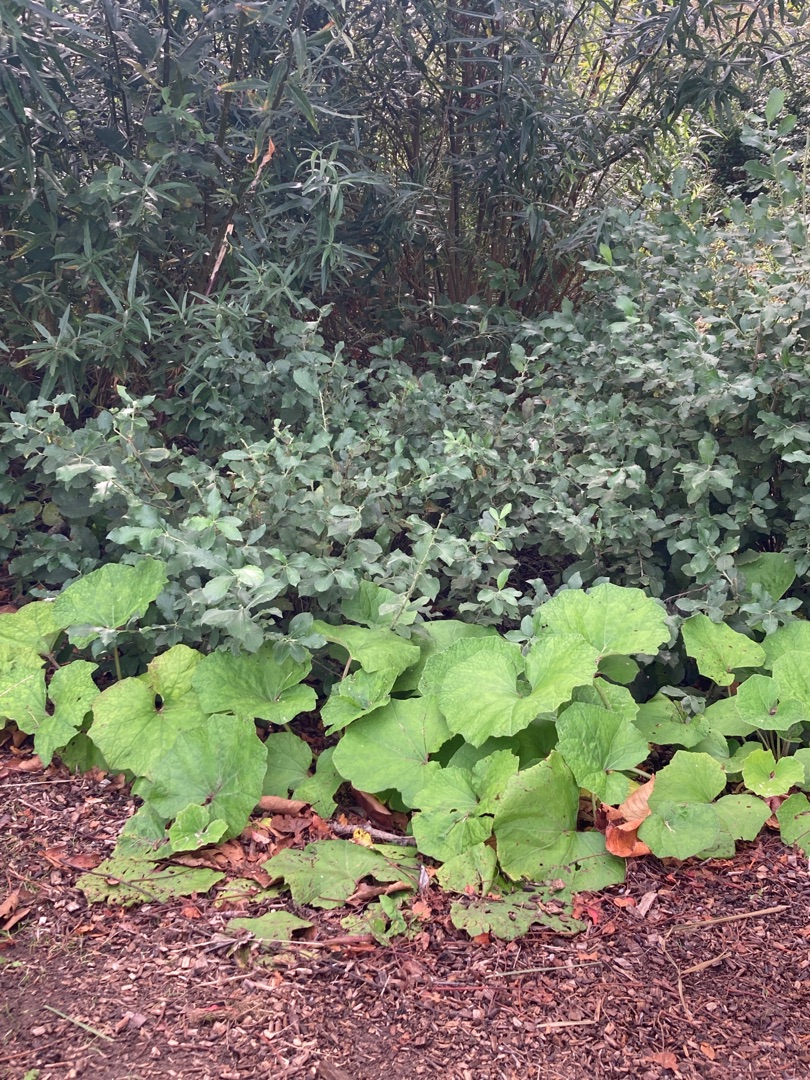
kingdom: Plantae
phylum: Tracheophyta
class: Magnoliopsida
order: Asterales
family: Asteraceae
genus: Petasites
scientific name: Petasites hybridus
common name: Rød hestehov
